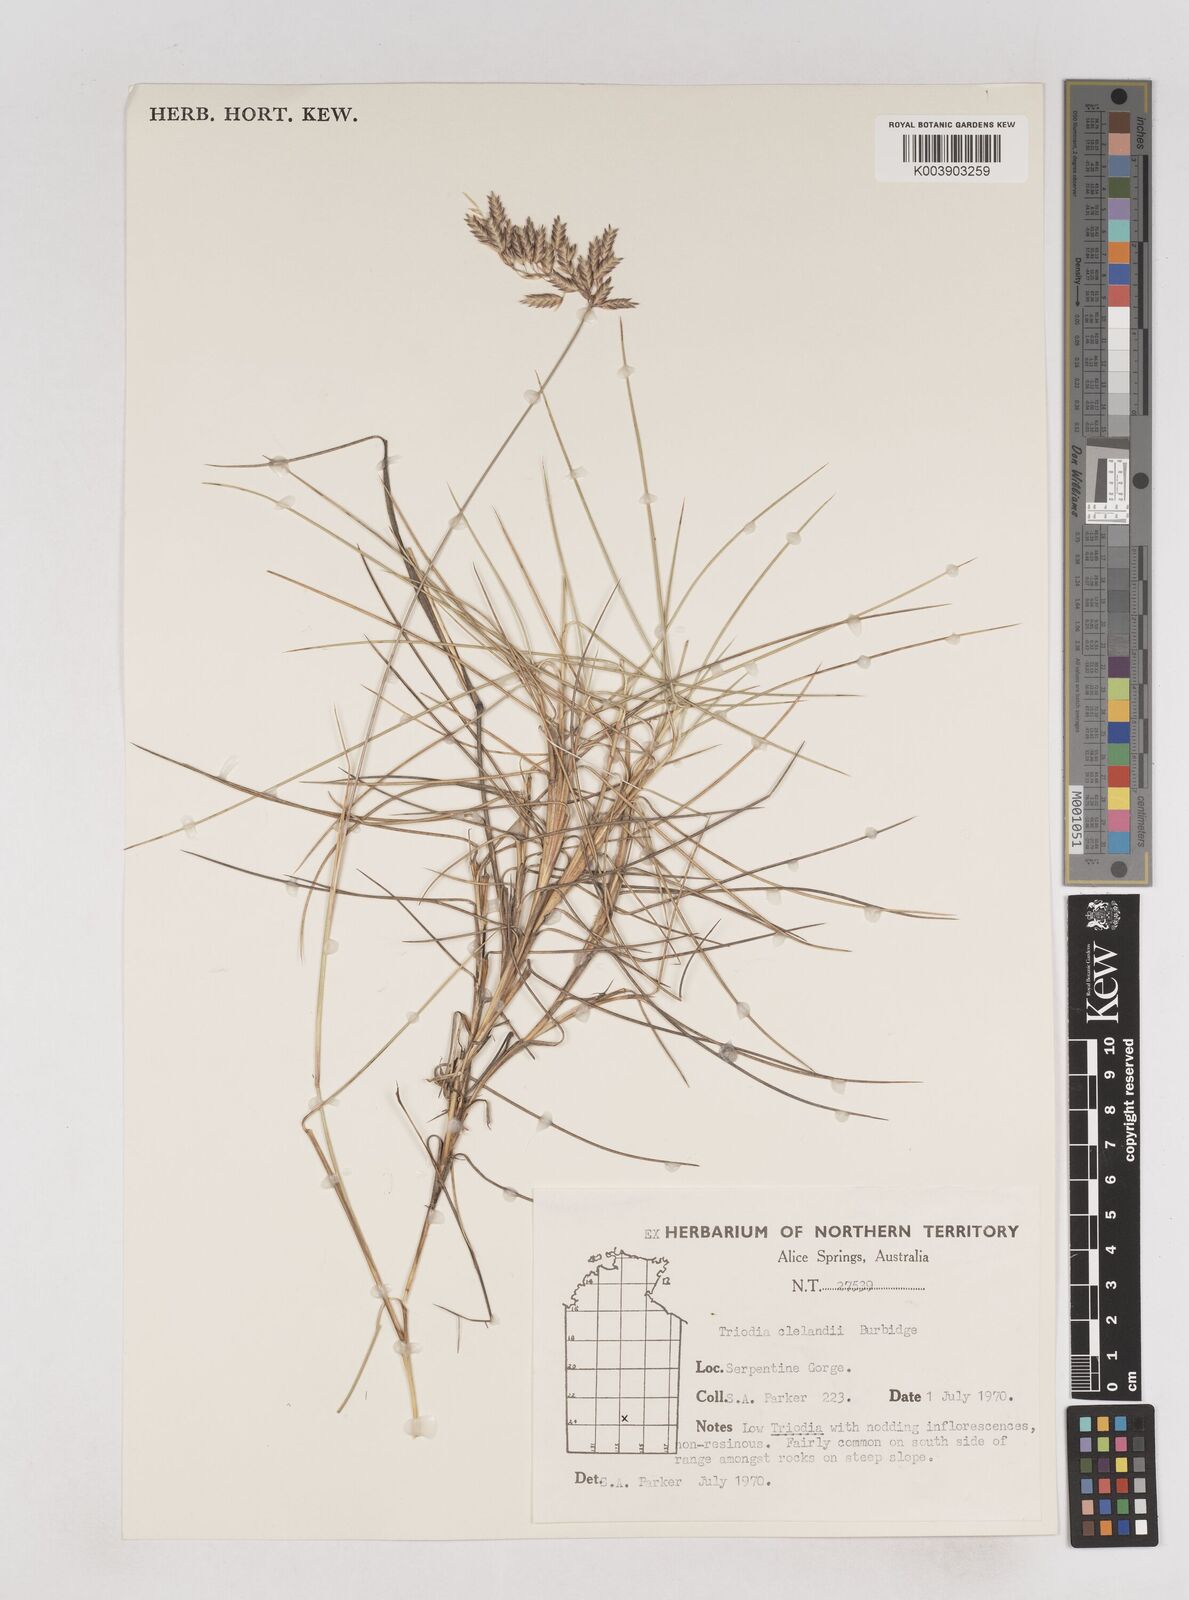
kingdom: Plantae
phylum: Tracheophyta
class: Liliopsida
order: Poales
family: Poaceae
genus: Triodia
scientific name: Triodia brizoides
